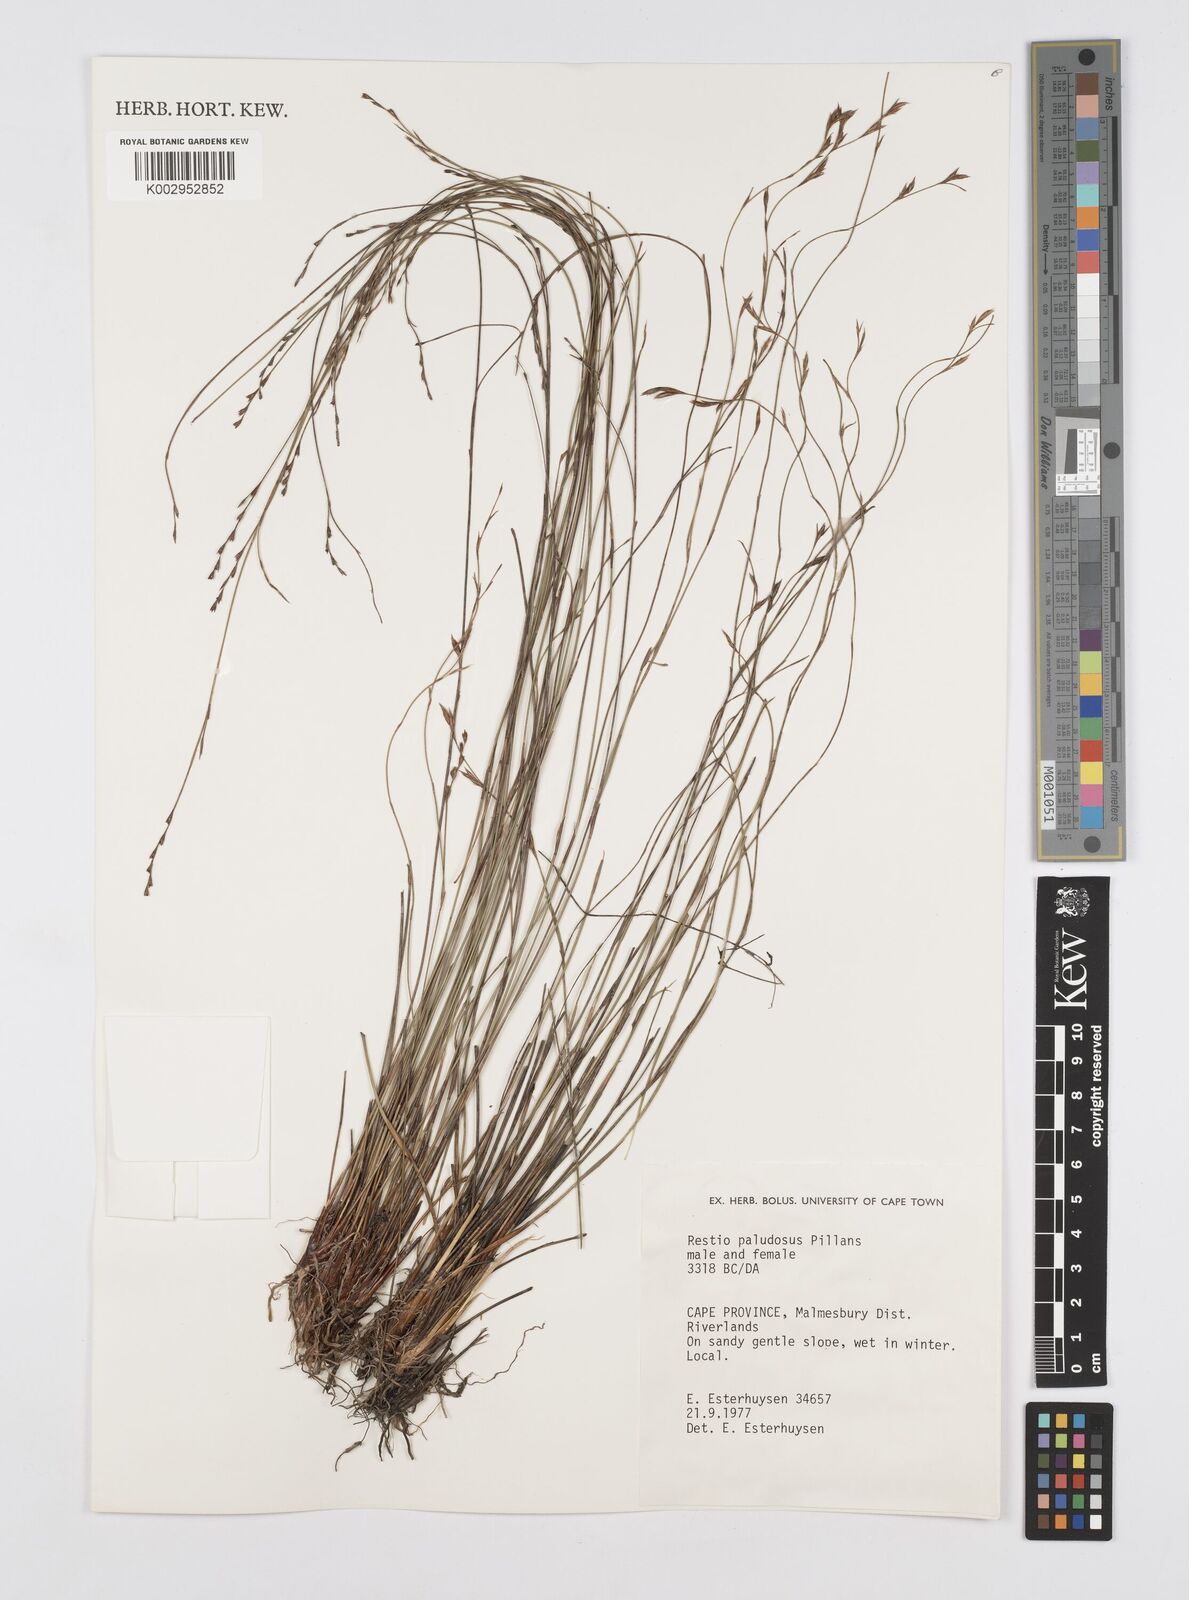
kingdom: Plantae
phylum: Tracheophyta
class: Liliopsida
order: Poales
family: Restionaceae
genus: Restio
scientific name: Restio paludosus
